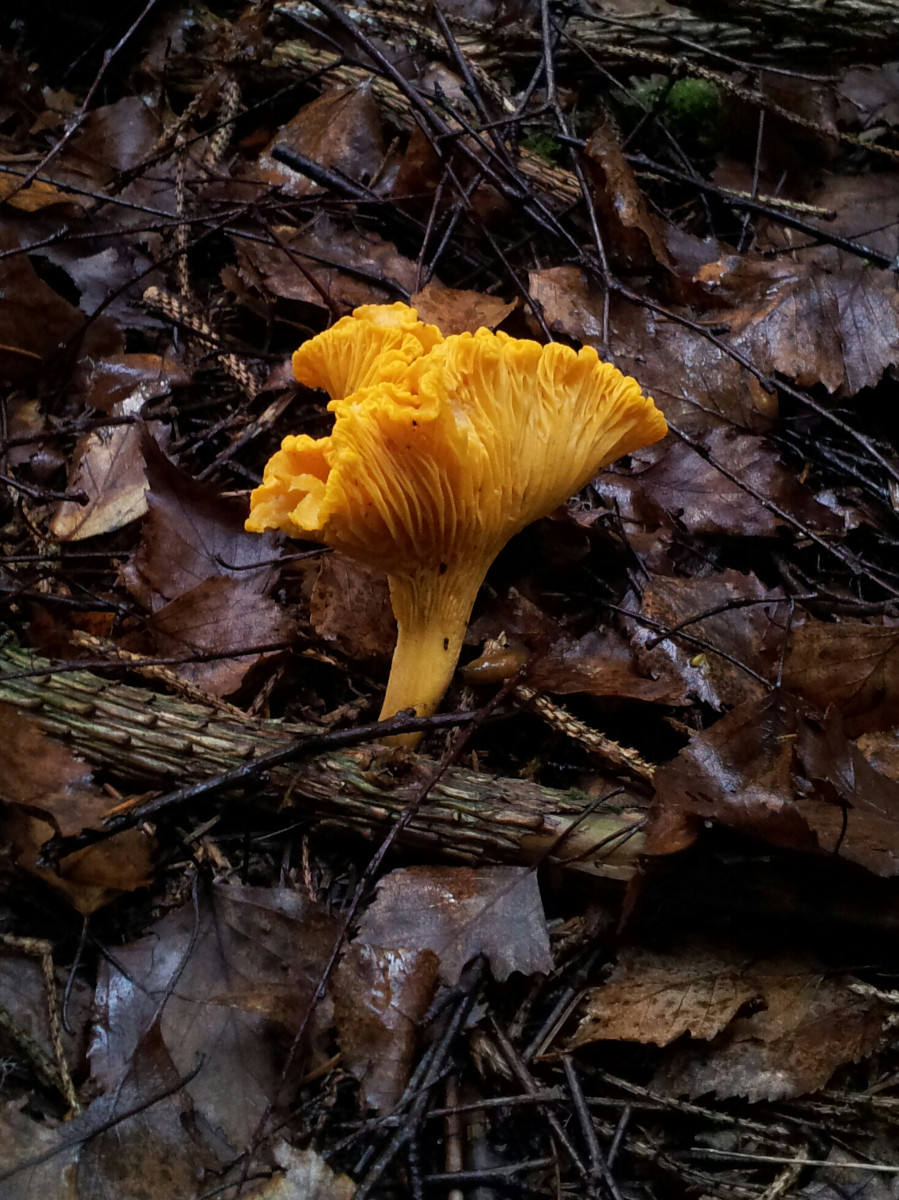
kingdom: Fungi
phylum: Basidiomycota
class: Agaricomycetes
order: Cantharellales
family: Hydnaceae
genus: Cantharellus
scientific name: Cantharellus cibarius
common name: almindelig kantarel
